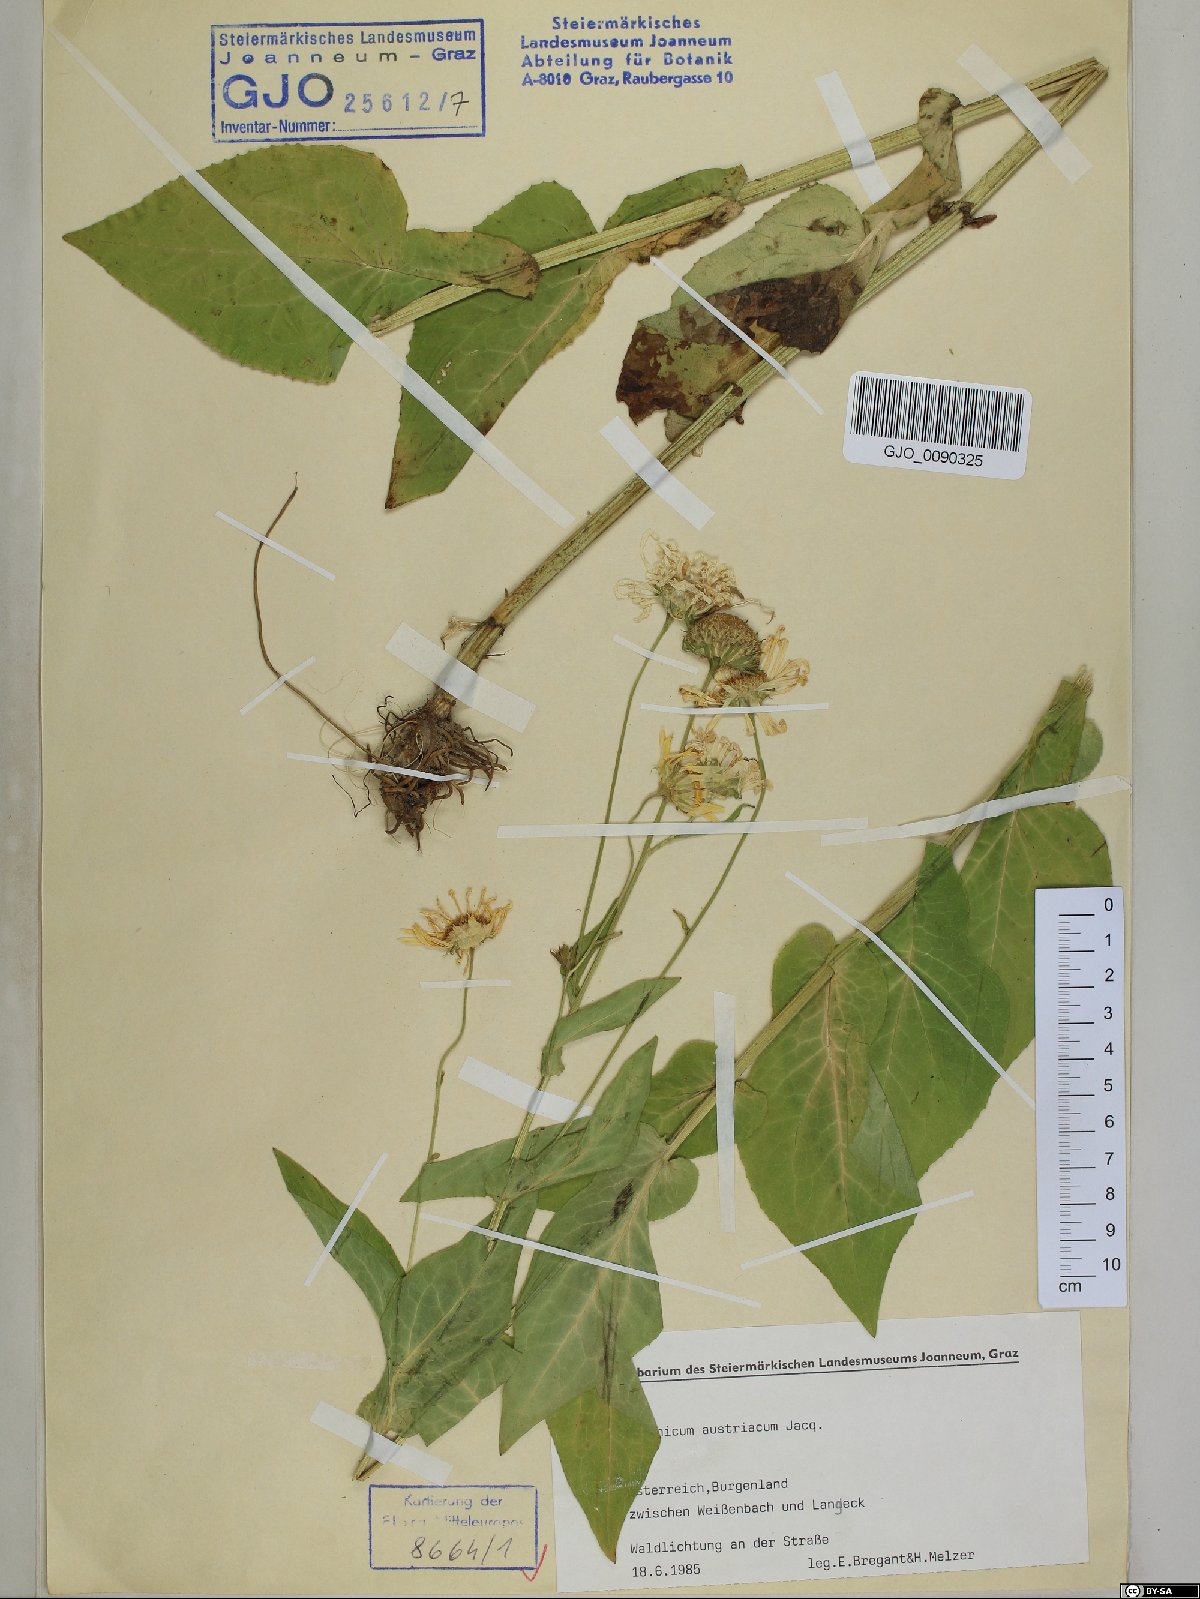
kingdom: Plantae
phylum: Tracheophyta
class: Magnoliopsida
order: Asterales
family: Asteraceae
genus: Doronicum
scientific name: Doronicum austriacum
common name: Austrian leopard's-bane
